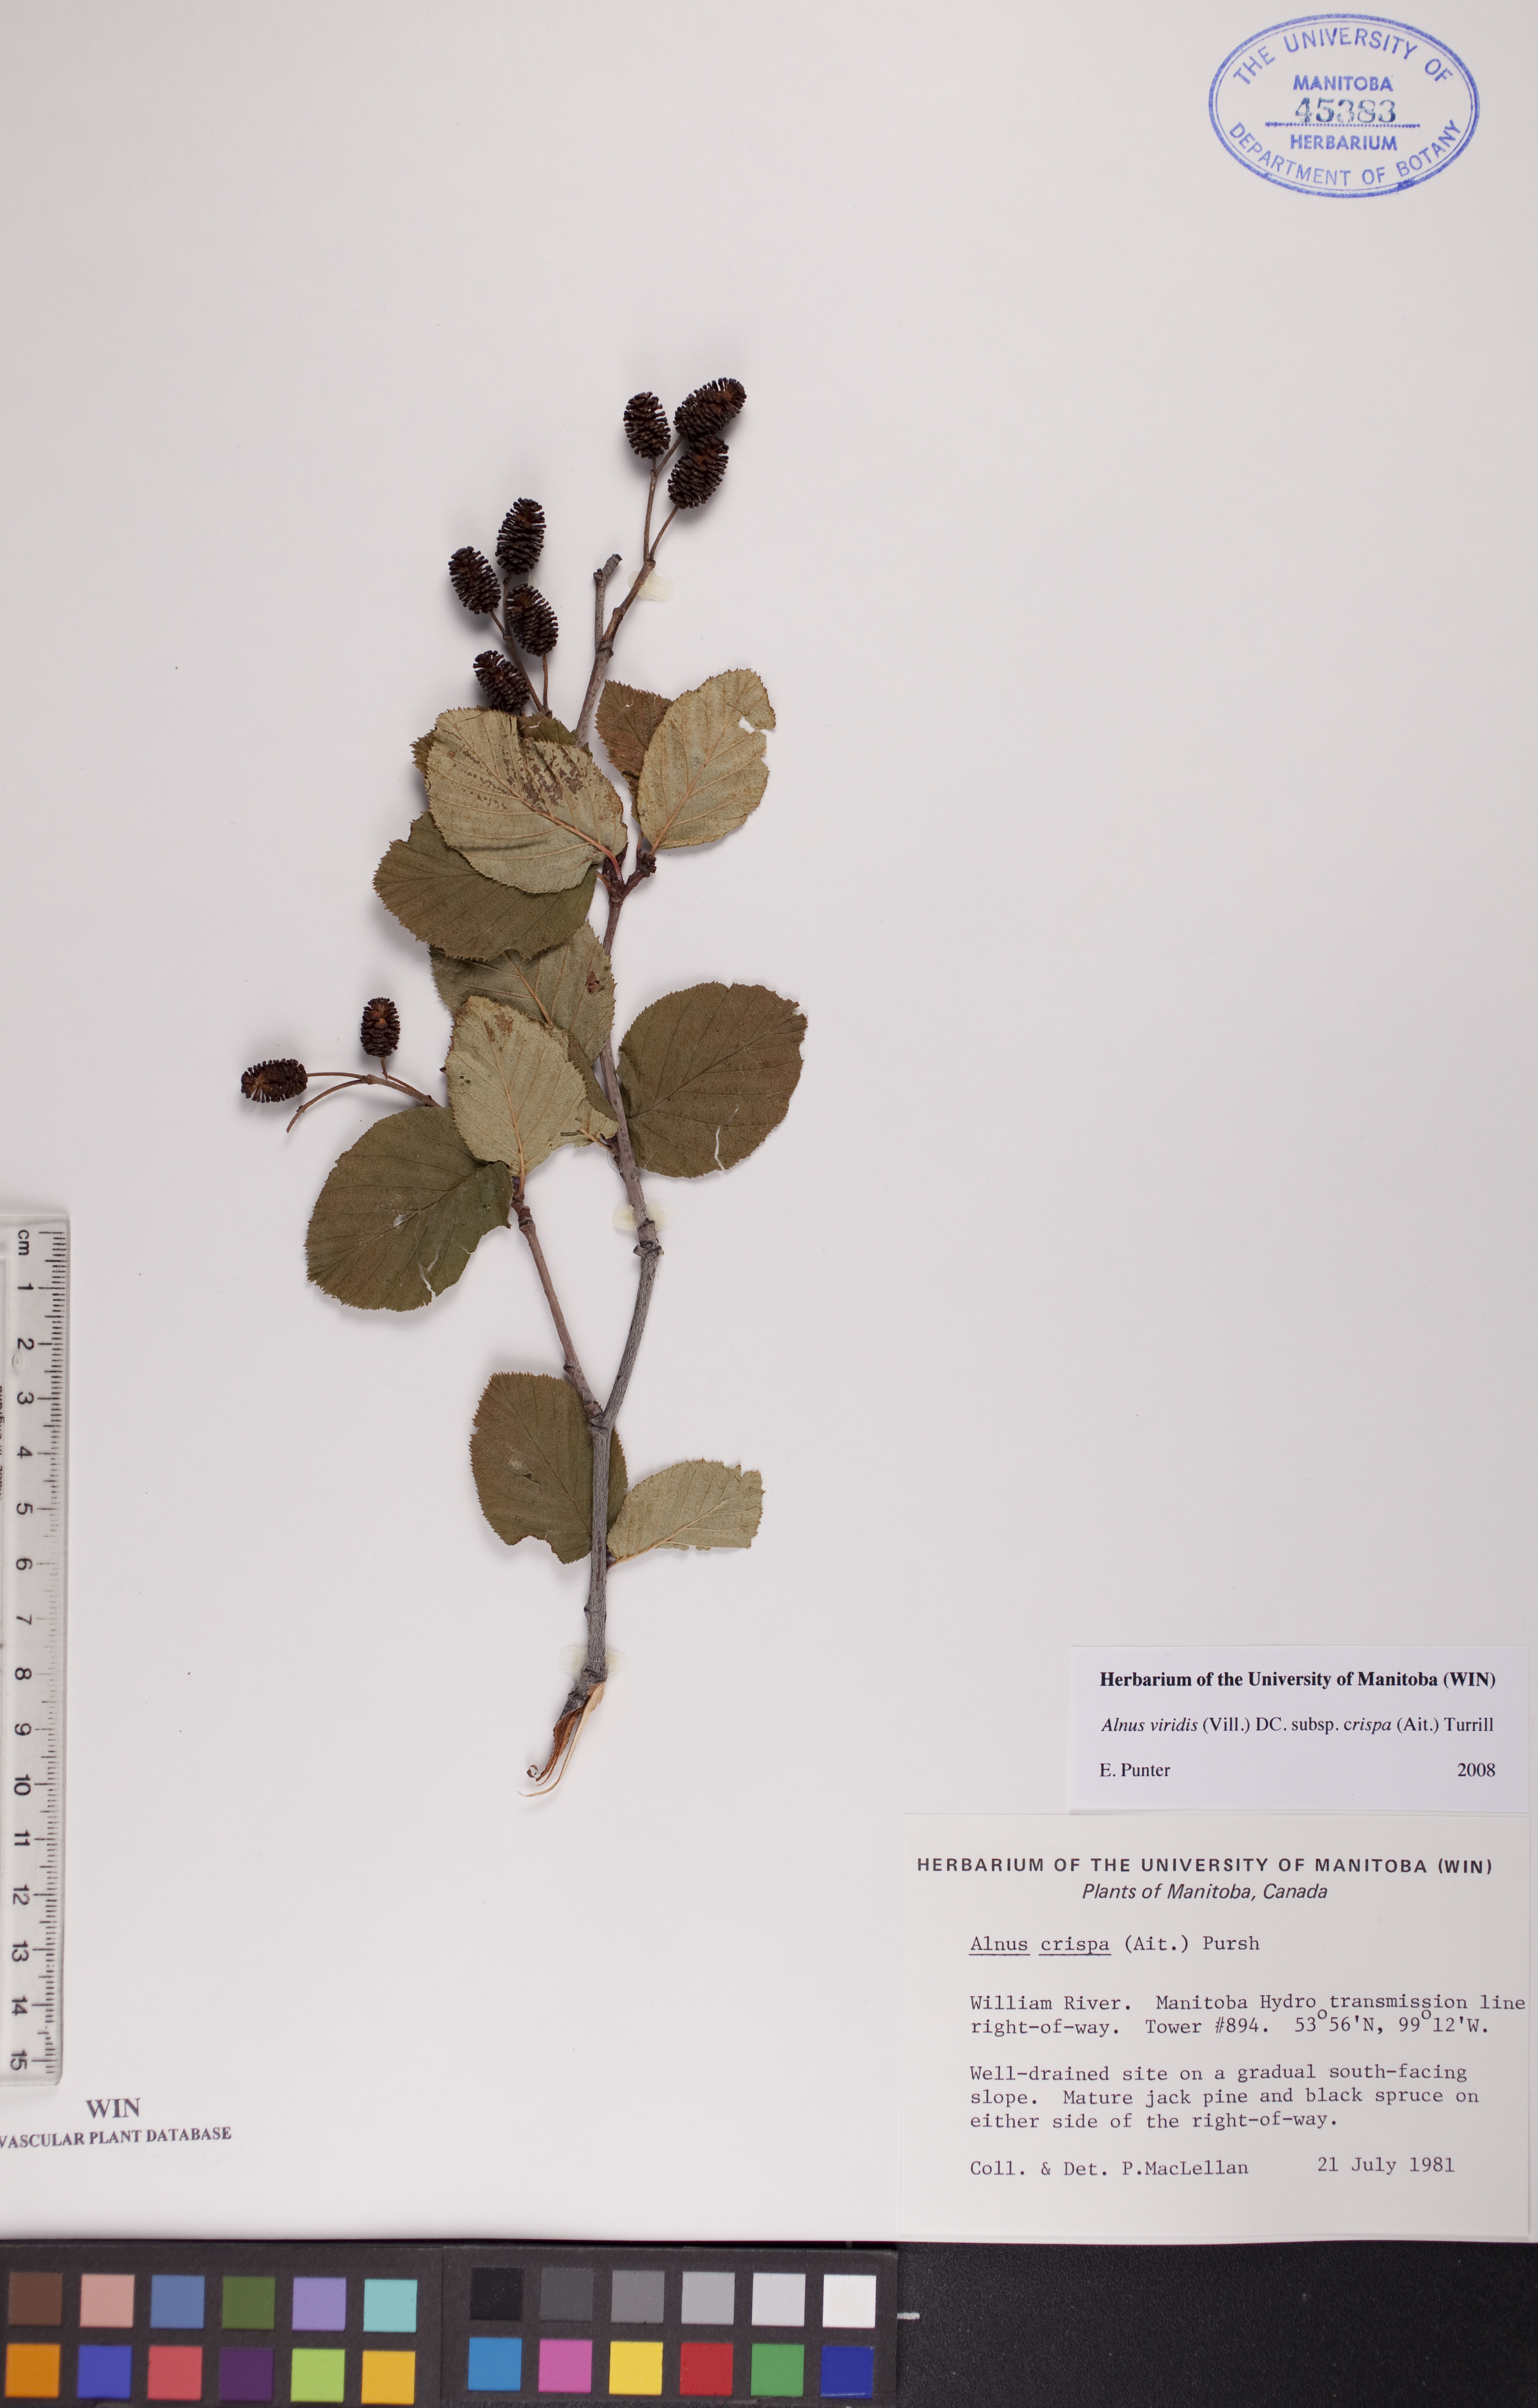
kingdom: Plantae
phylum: Tracheophyta
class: Magnoliopsida
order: Fagales
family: Betulaceae
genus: Alnus
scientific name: Alnus alnobetula
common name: Green alder
